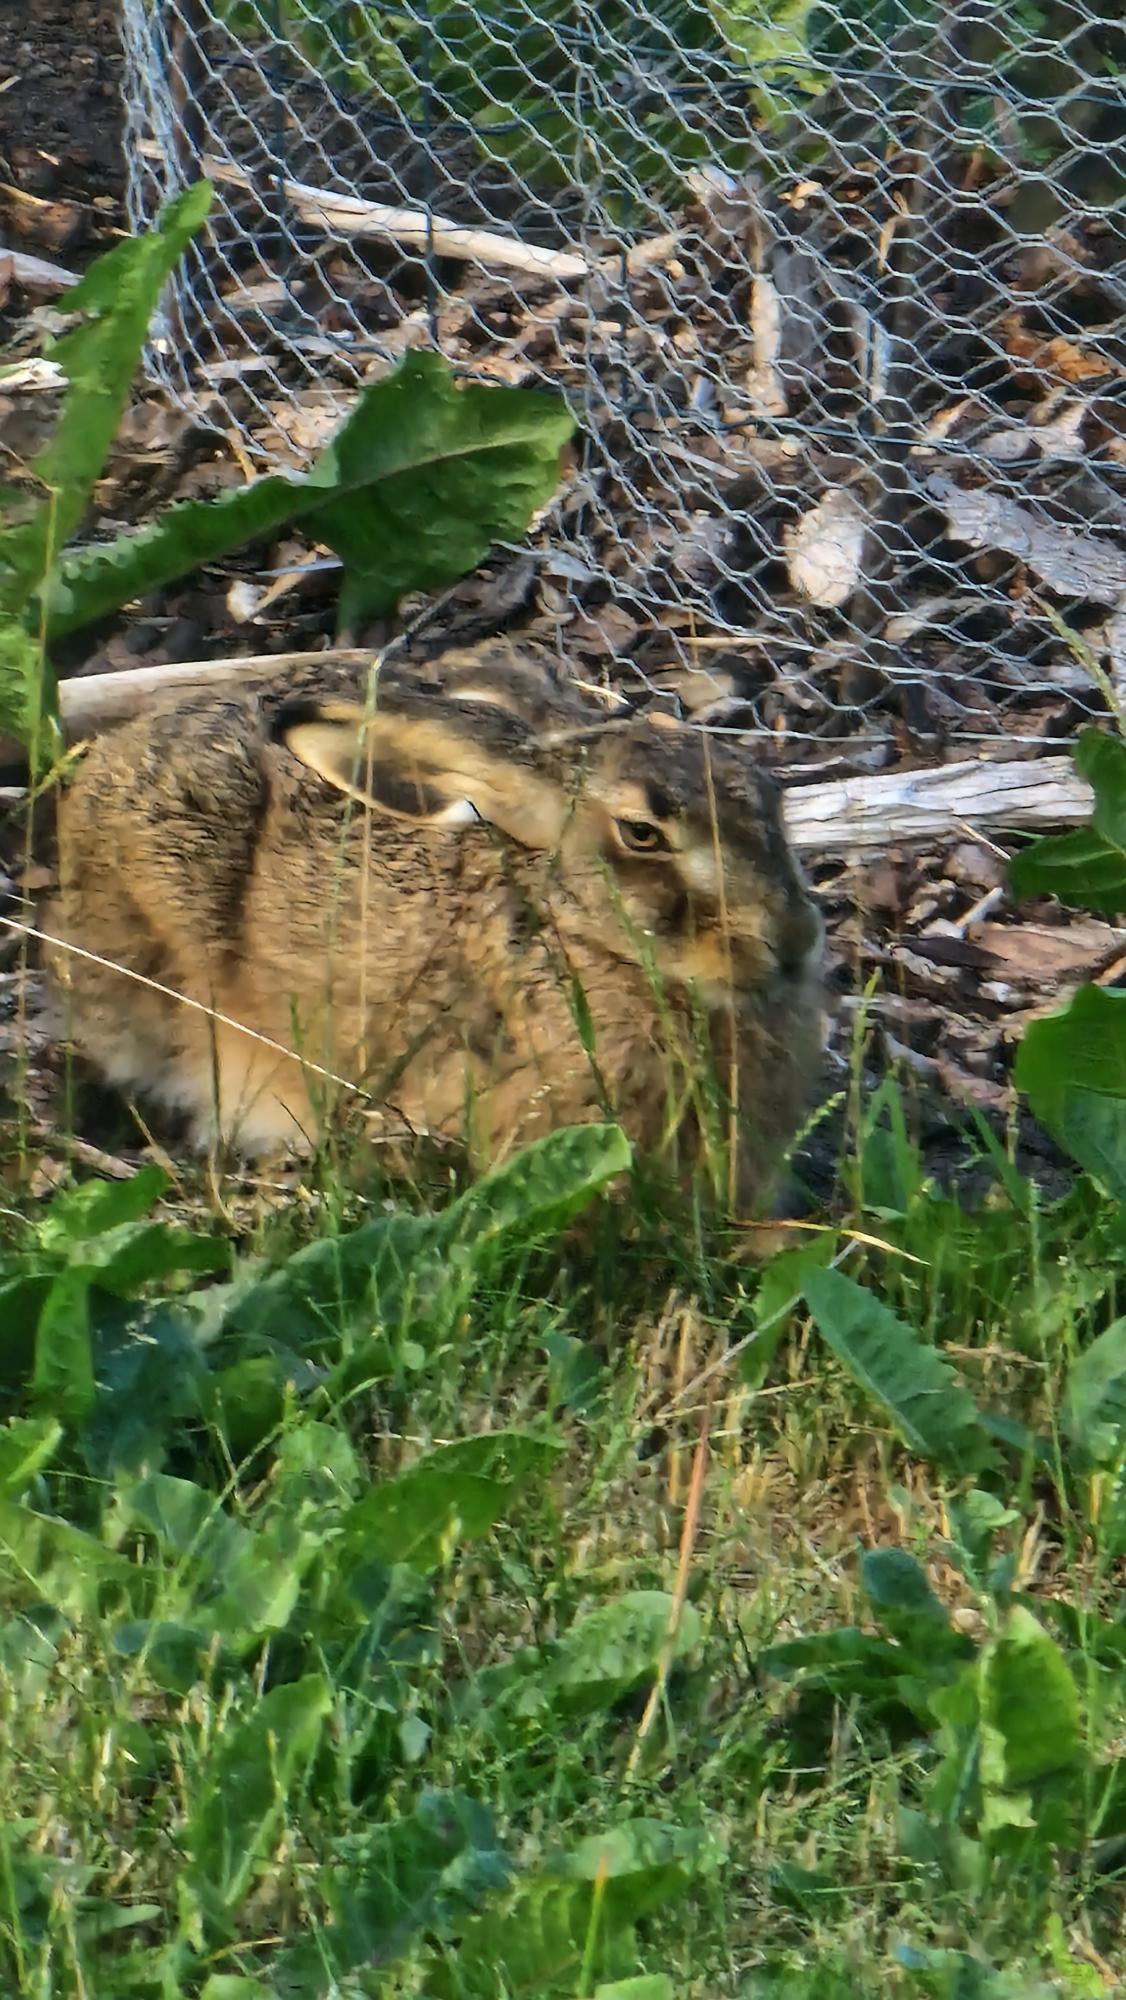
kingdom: Animalia
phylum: Chordata
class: Mammalia
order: Lagomorpha
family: Leporidae
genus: Lepus
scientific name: Lepus europaeus
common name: Hare
